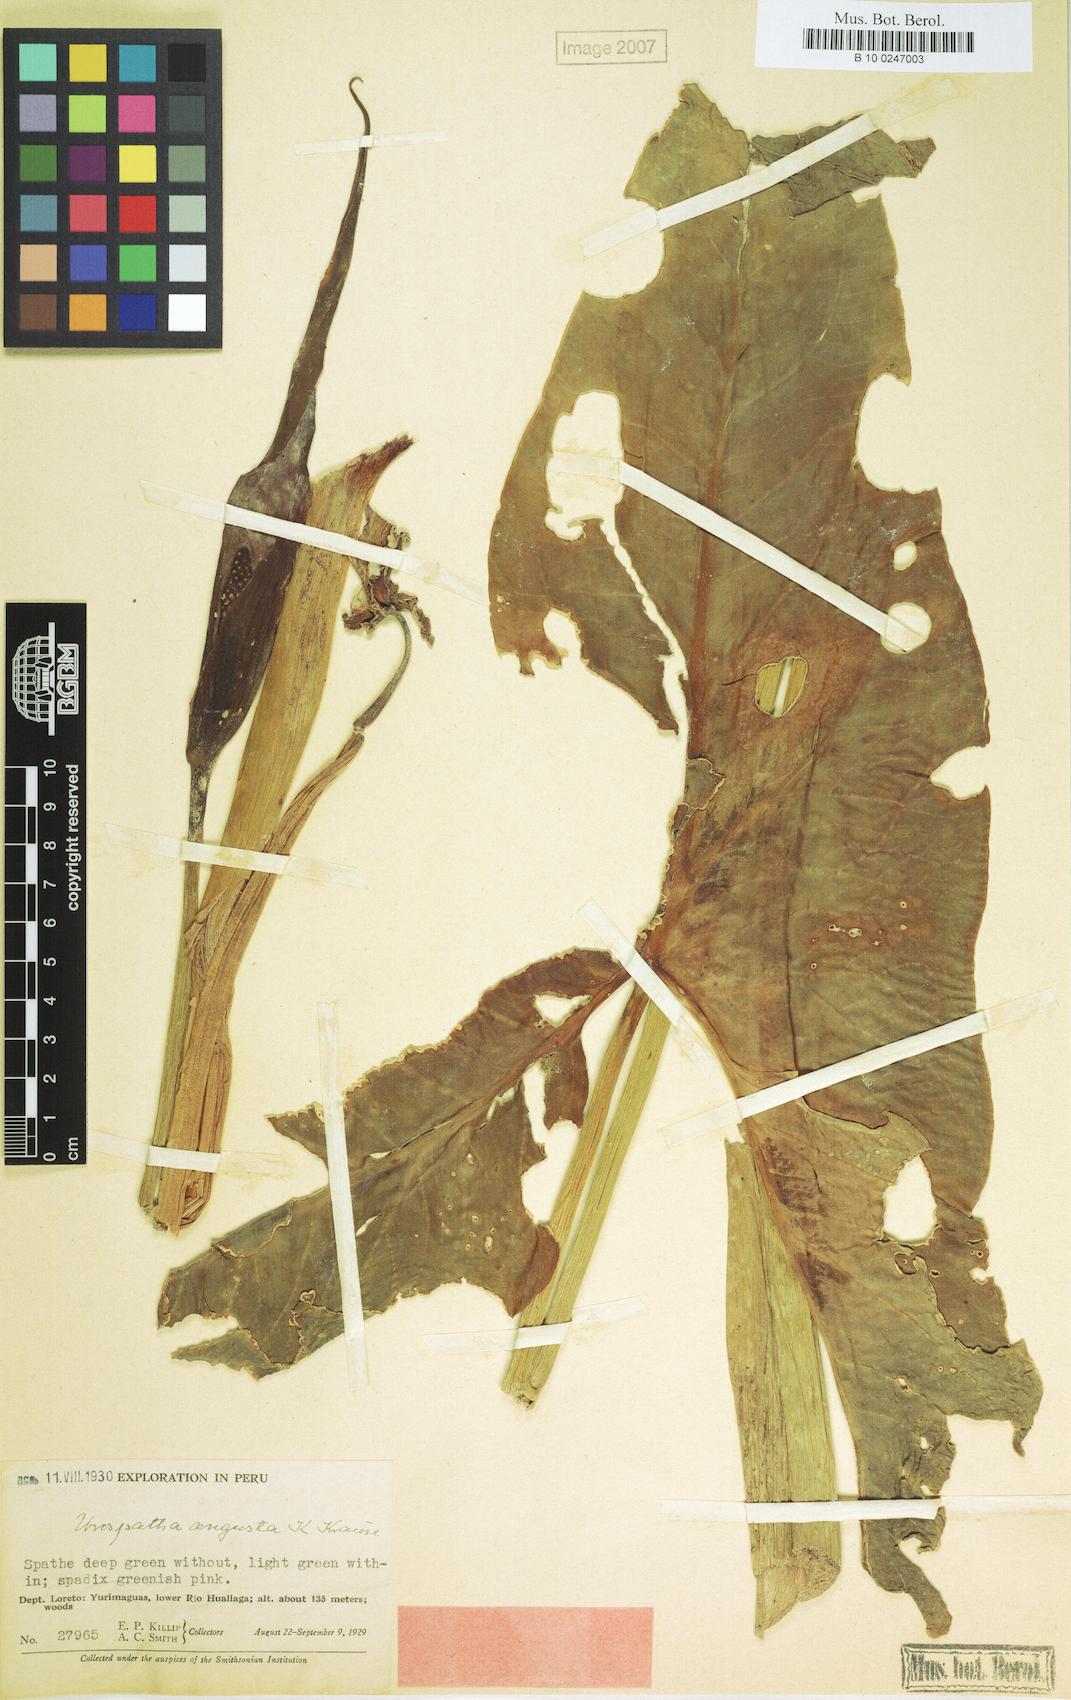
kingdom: Plantae
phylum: Tracheophyta
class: Liliopsida
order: Alismatales
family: Araceae
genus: Urospatha
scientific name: Urospatha sagittifolia
